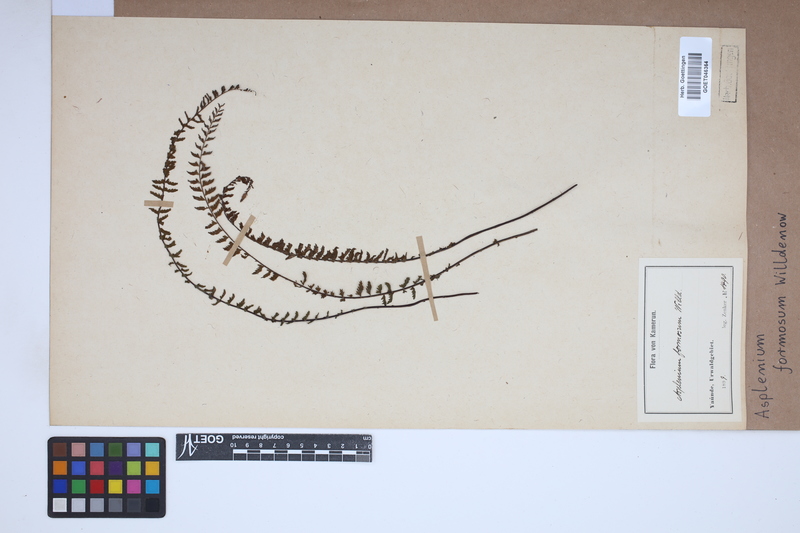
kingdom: Plantae
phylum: Tracheophyta
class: Polypodiopsida
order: Polypodiales
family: Aspleniaceae
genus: Asplenium
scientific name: Asplenium formosum
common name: Showy spleenwort
